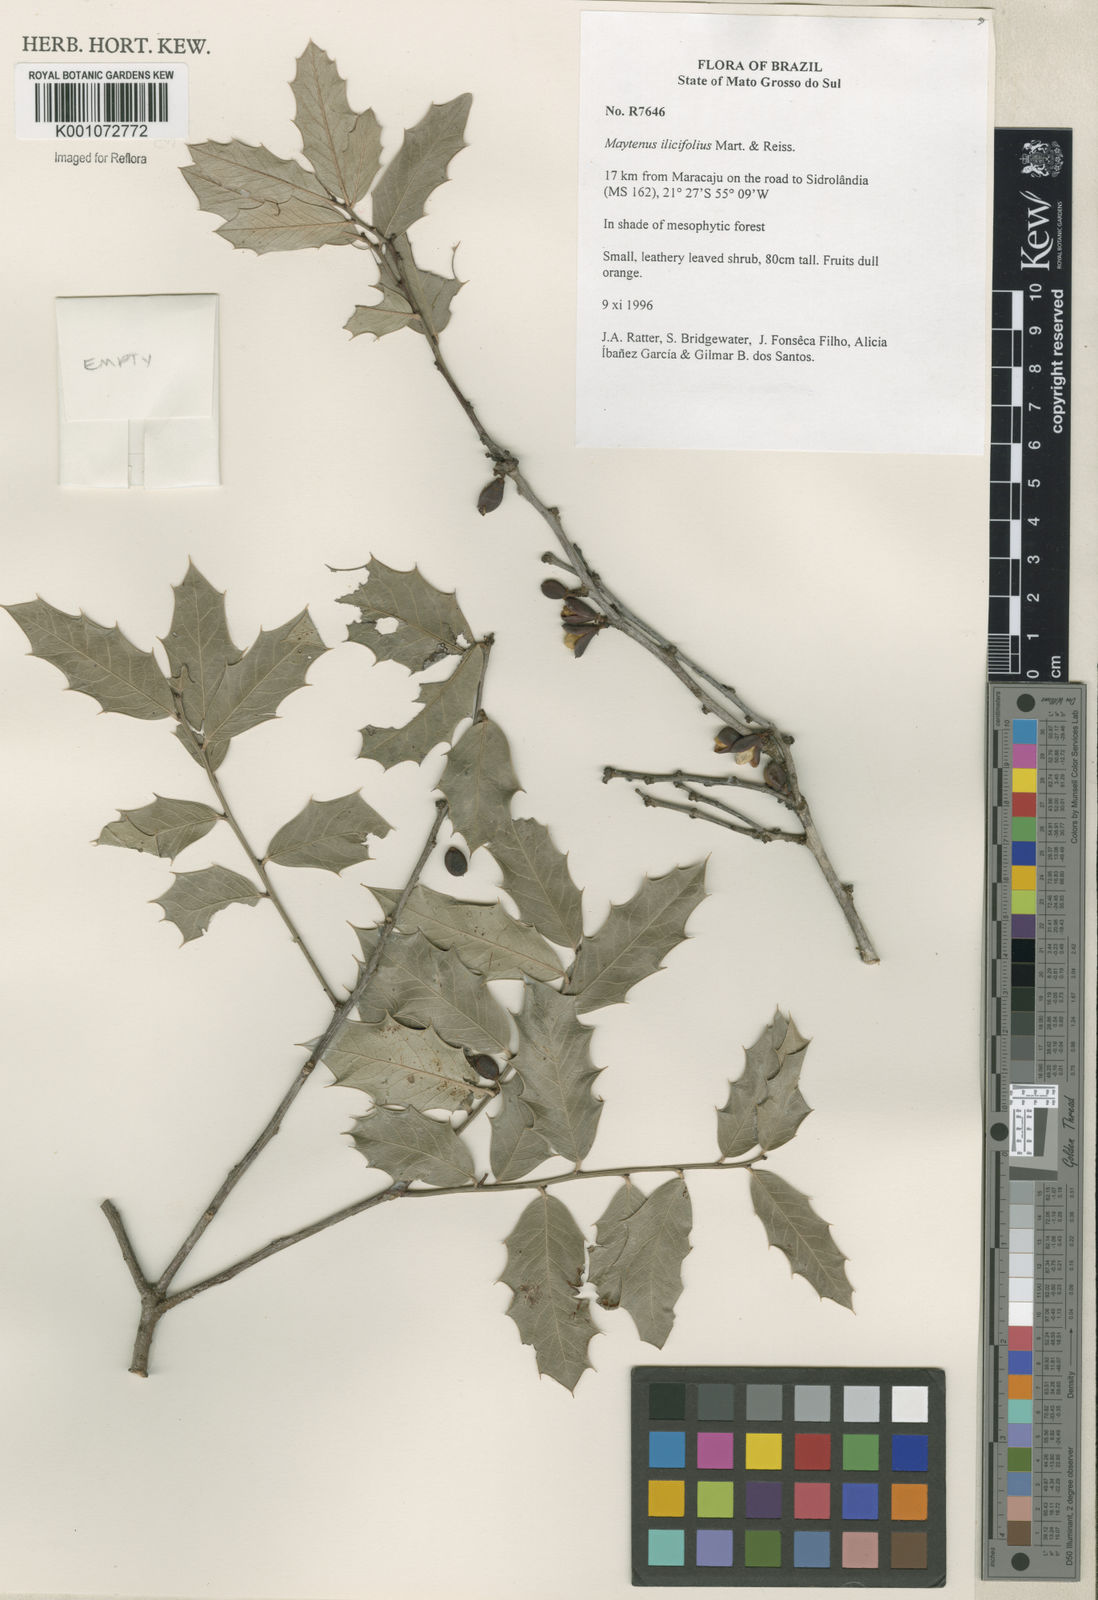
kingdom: Plantae
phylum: Tracheophyta
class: Magnoliopsida
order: Celastrales
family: Celastraceae
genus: Monteverdia
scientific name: Monteverdia ilicifolia
